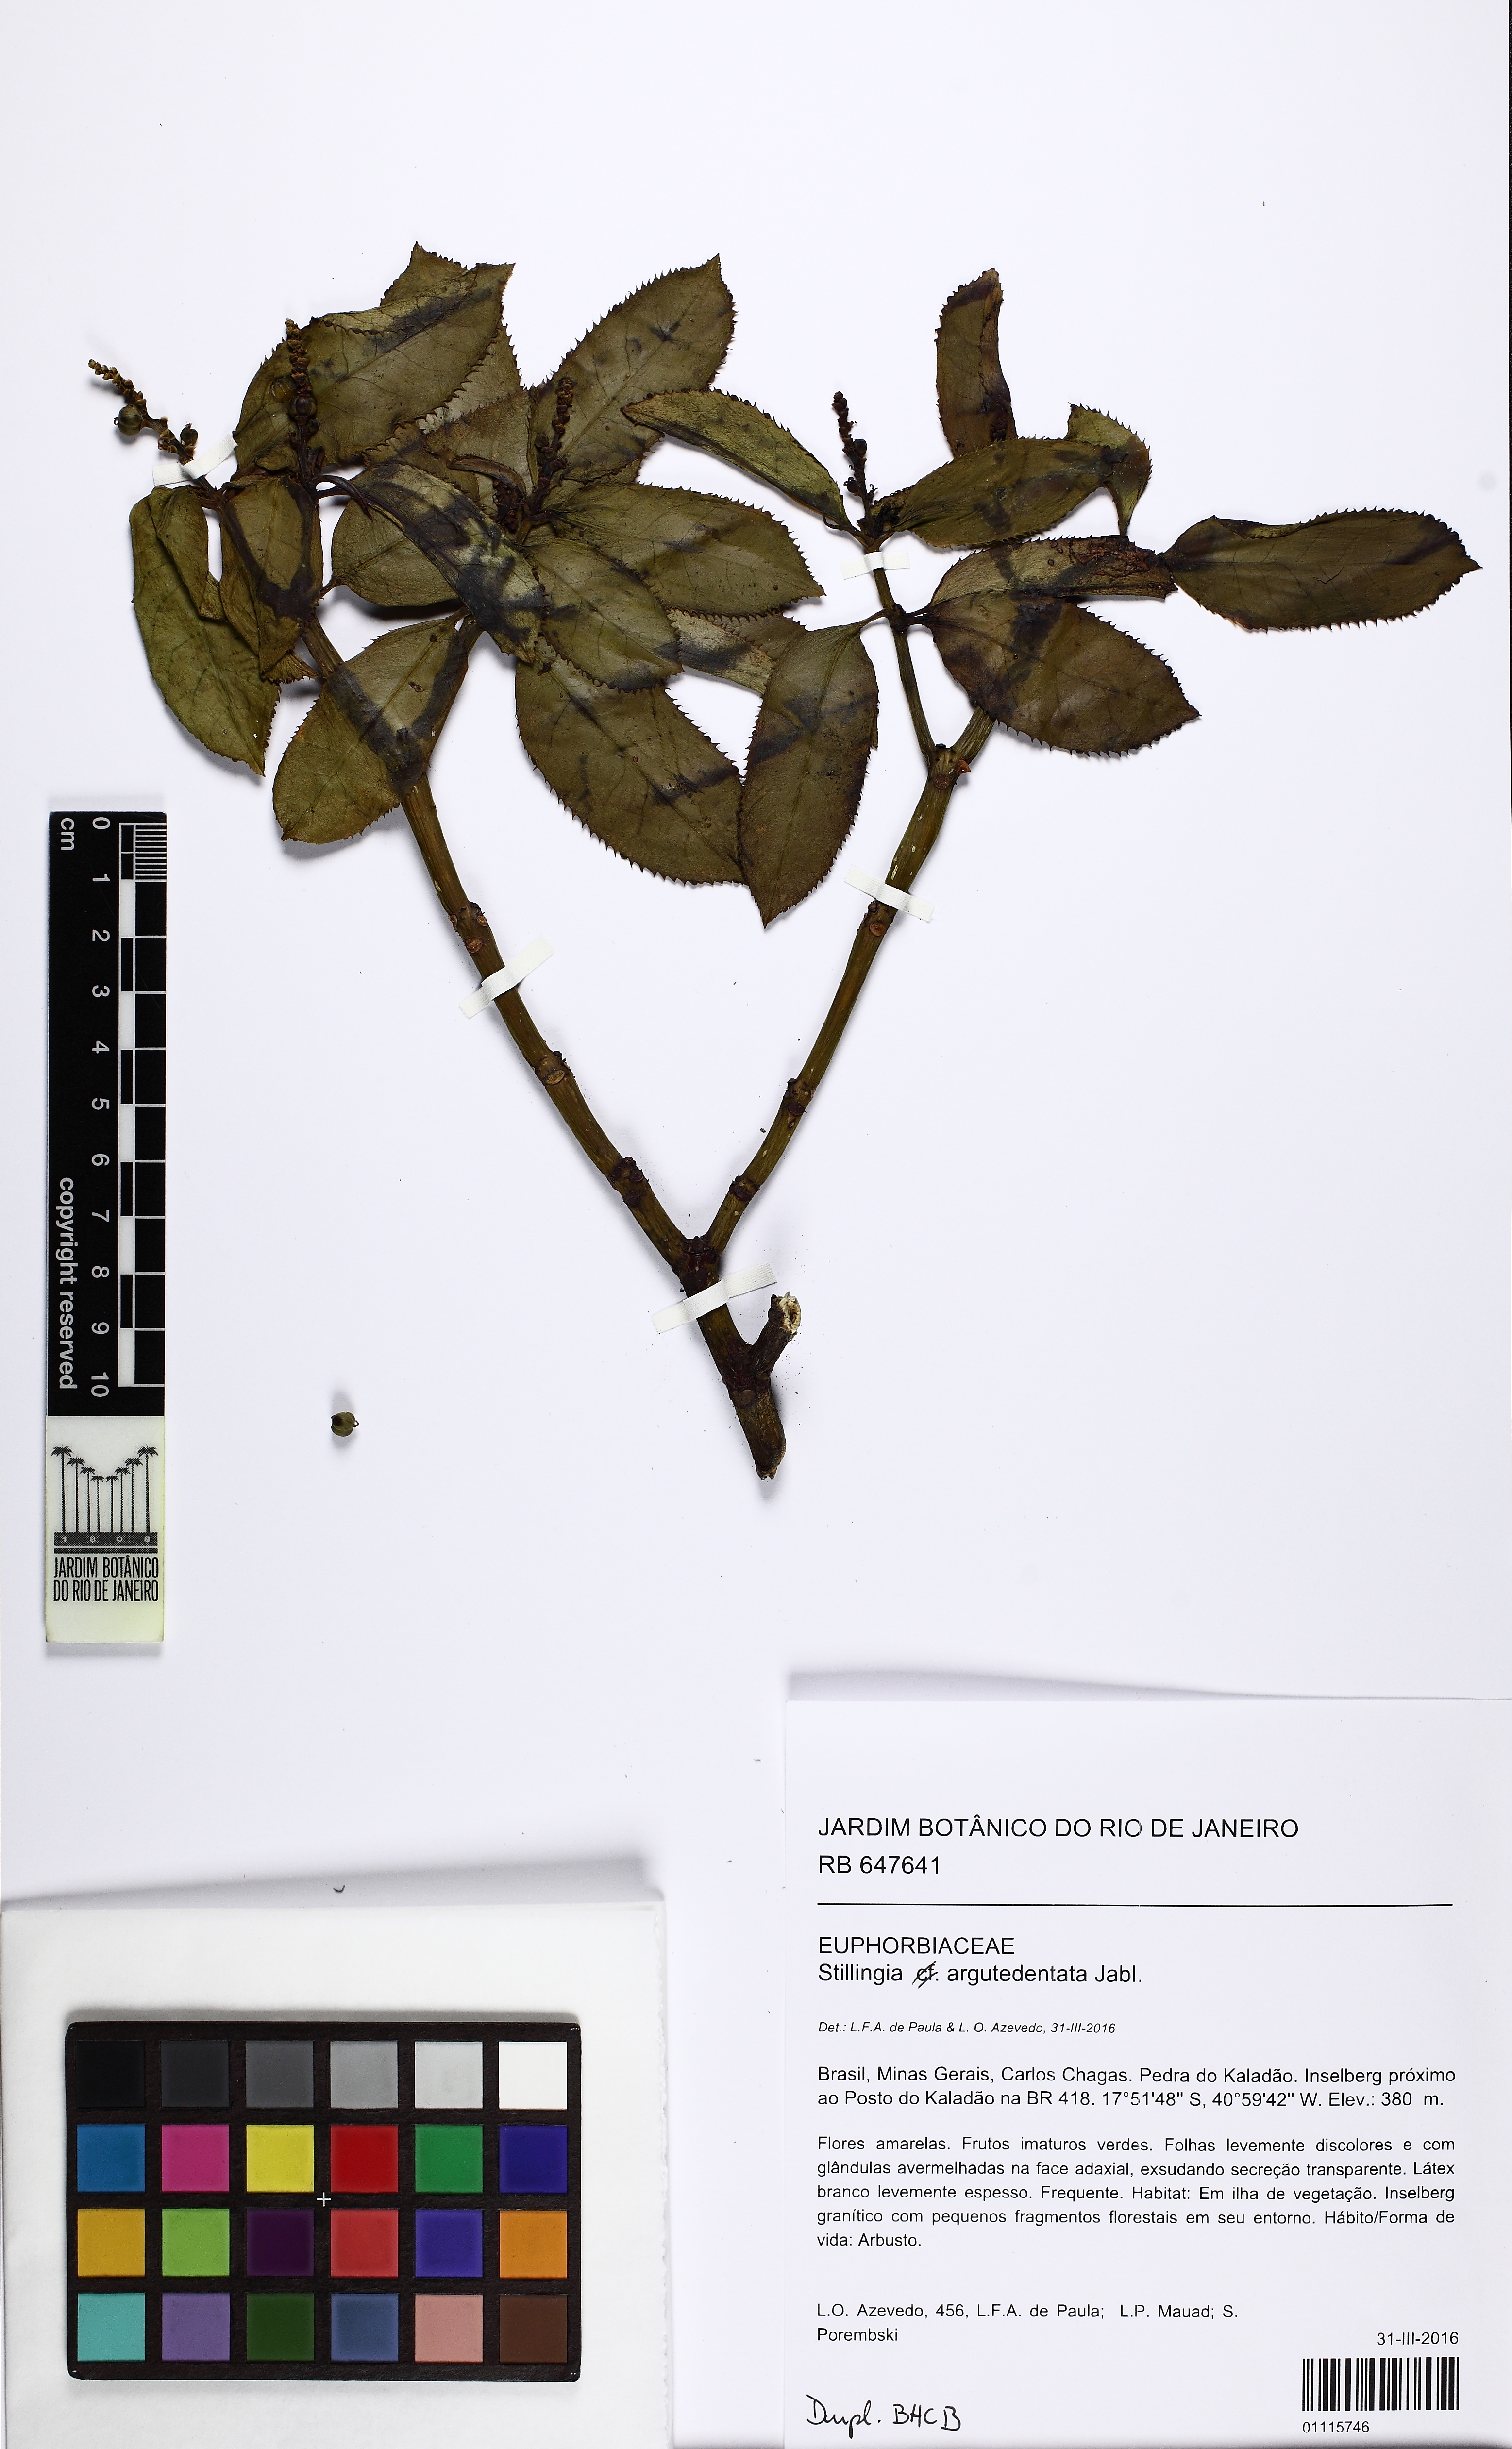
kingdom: Plantae
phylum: Tracheophyta
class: Magnoliopsida
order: Malpighiales
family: Euphorbiaceae
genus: Stillingia
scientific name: Stillingia argutedentata
